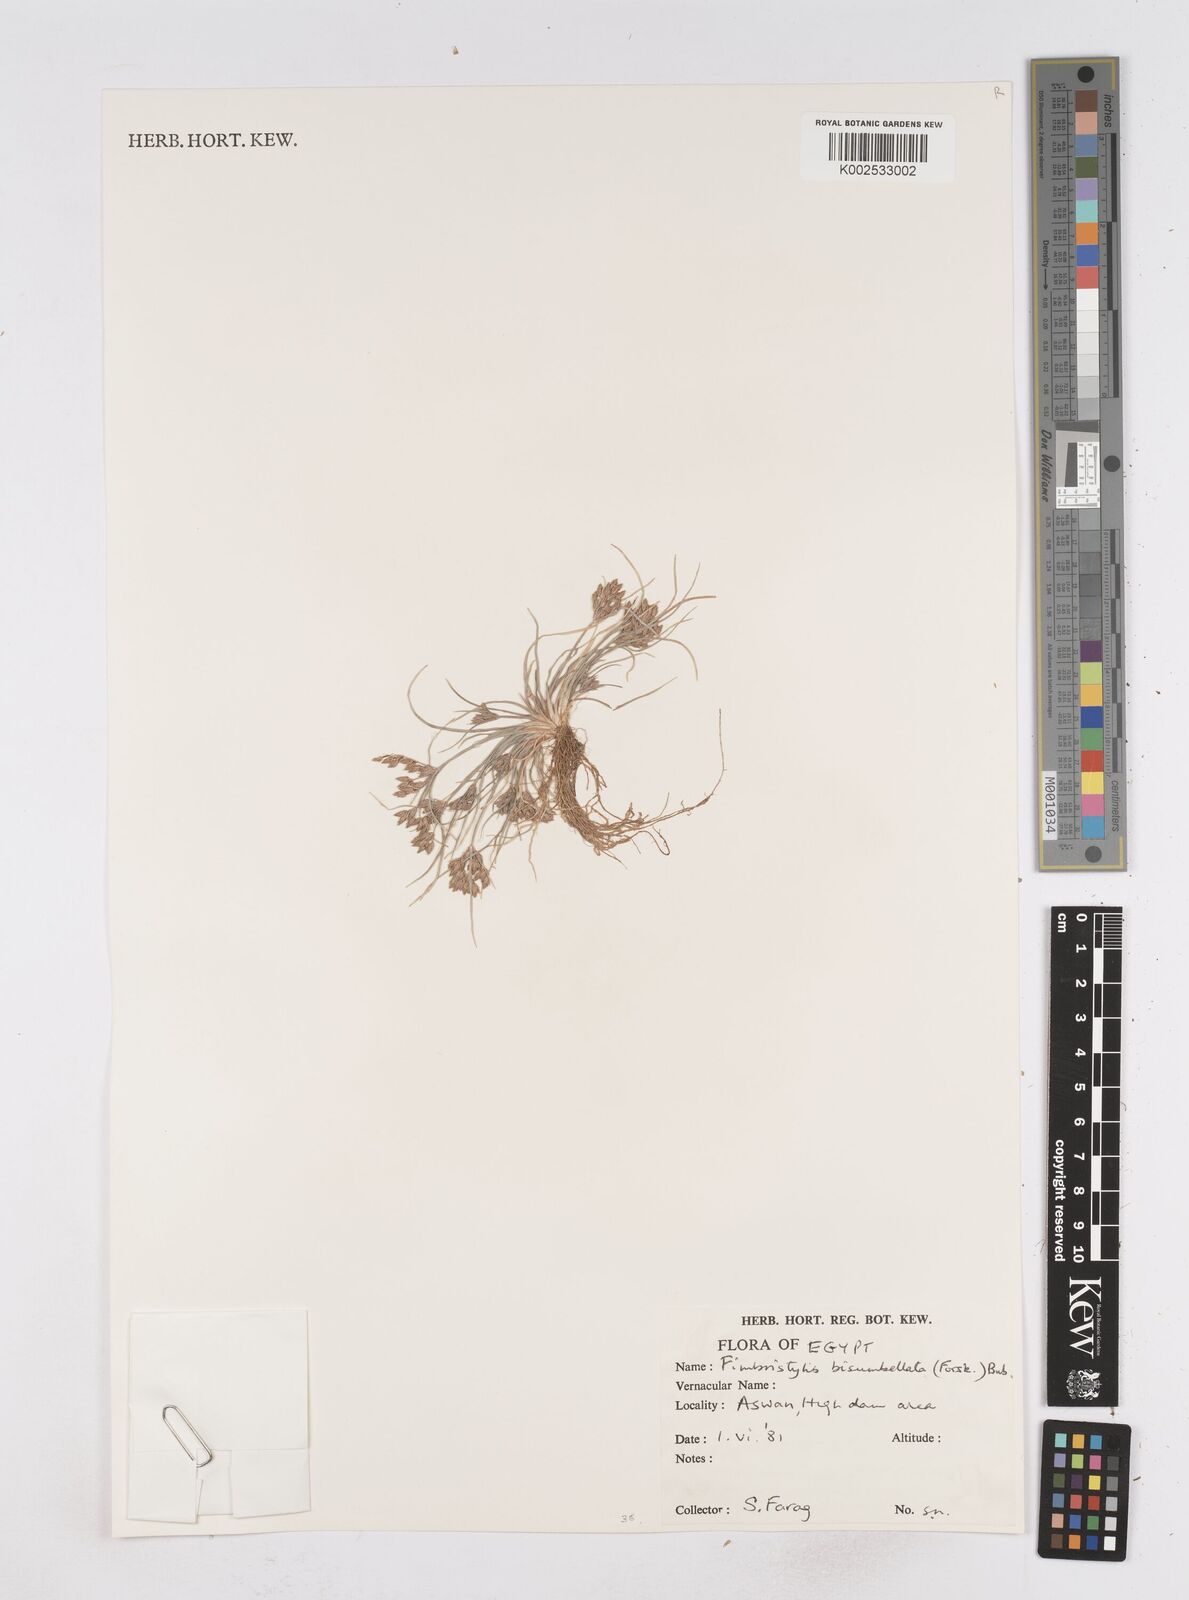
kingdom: Plantae
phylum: Tracheophyta
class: Liliopsida
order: Poales
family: Cyperaceae
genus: Fimbristylis
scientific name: Fimbristylis bisumbellata
